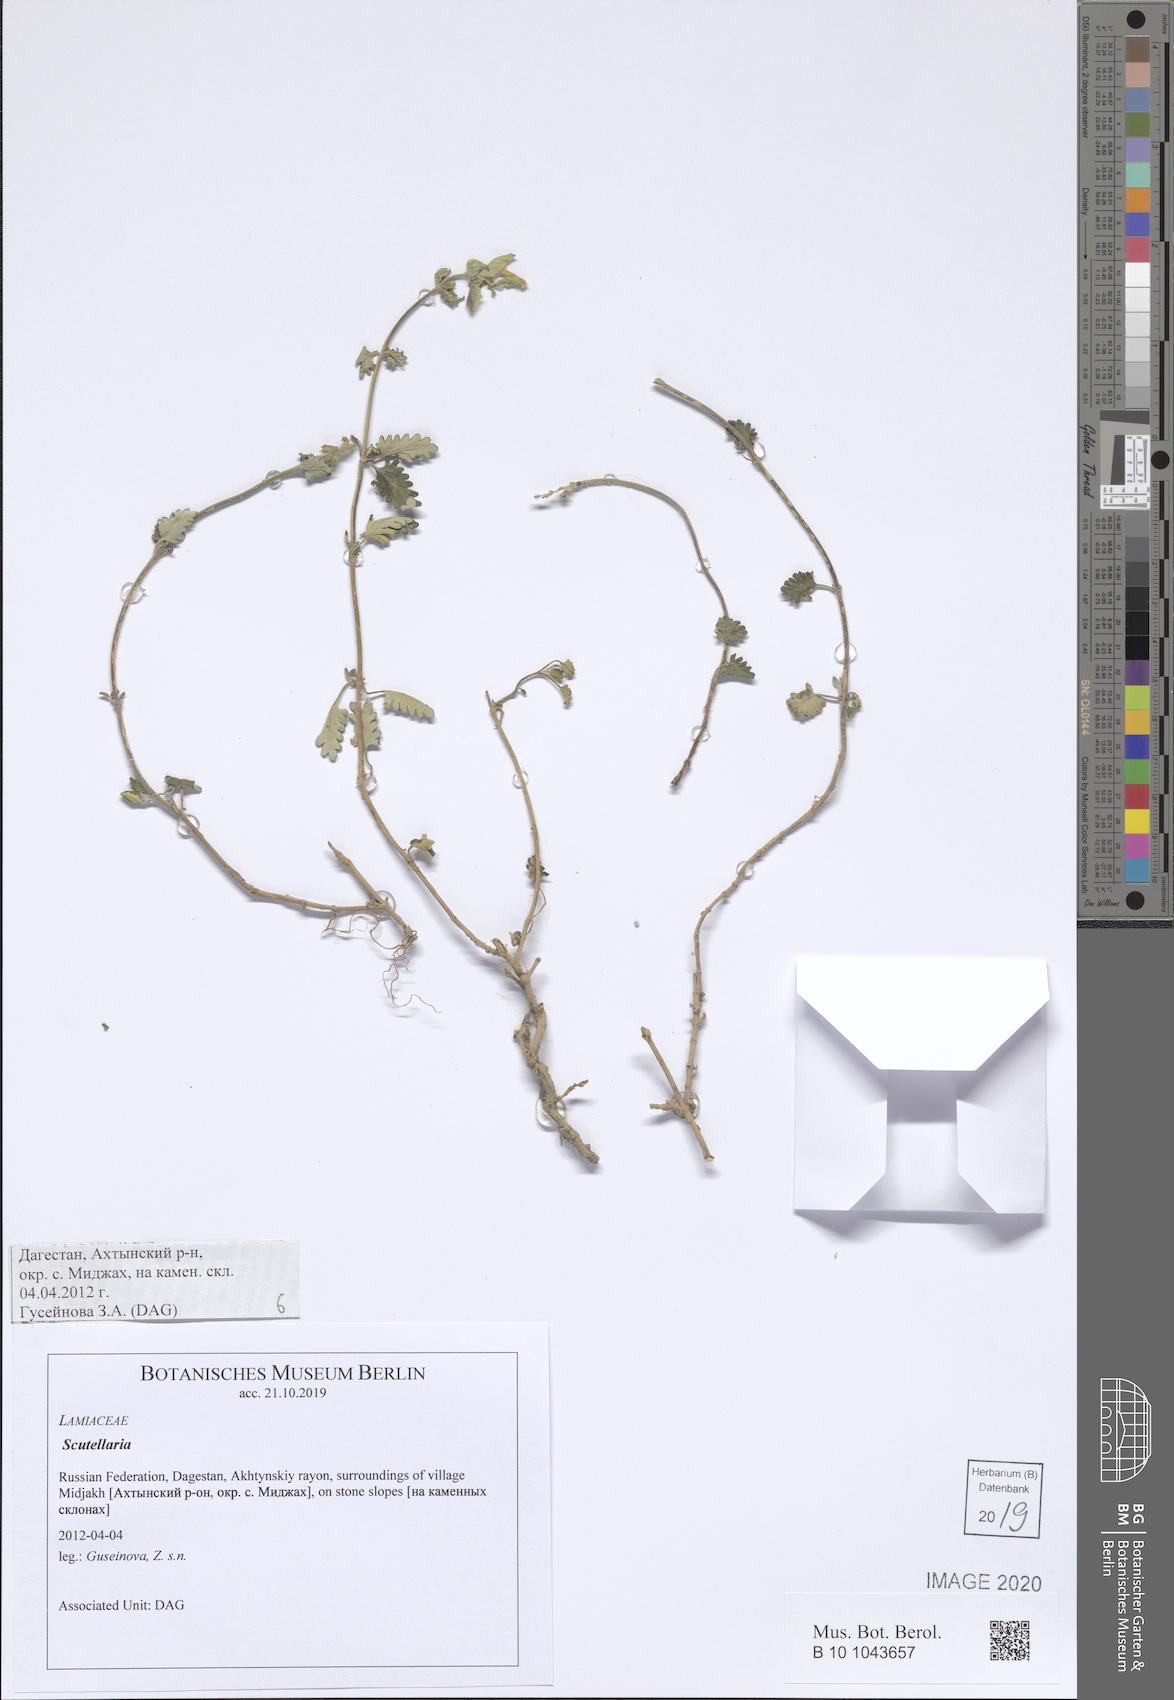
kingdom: Plantae
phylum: Tracheophyta
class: Magnoliopsida
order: Lamiales
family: Lamiaceae
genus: Scutellaria
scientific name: Scutellaria
